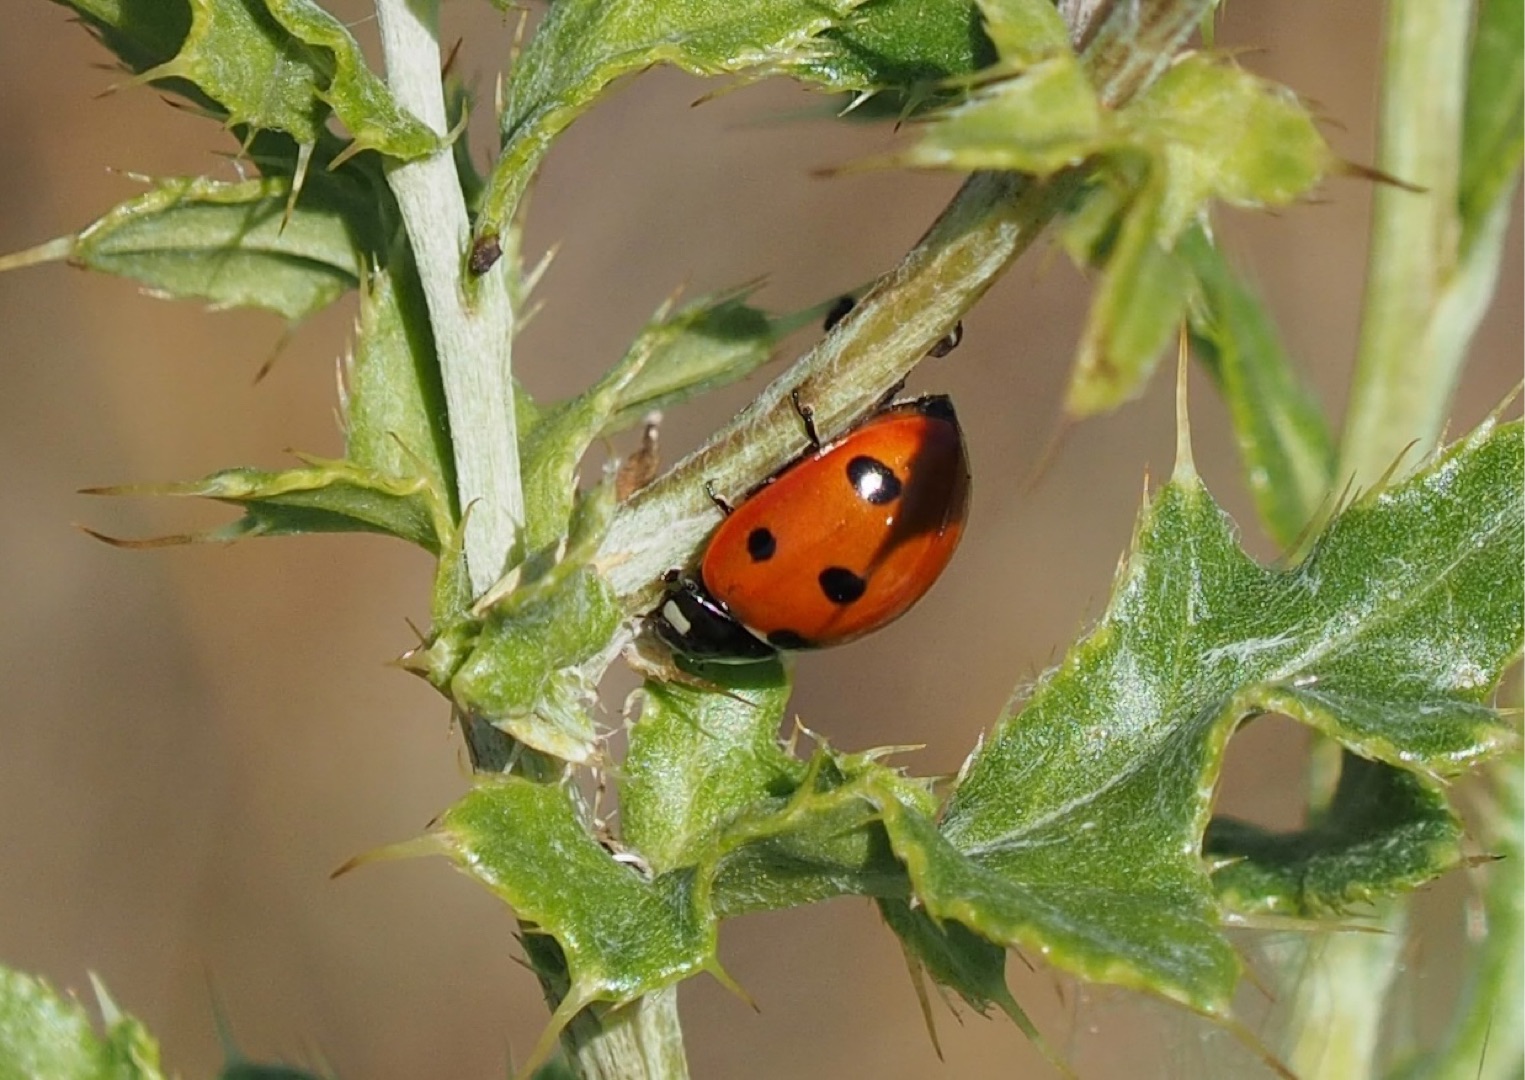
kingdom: Animalia
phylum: Arthropoda
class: Insecta
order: Coleoptera
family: Coccinellidae
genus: Coccinella
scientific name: Coccinella septempunctata
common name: Syvplettet mariehøne
